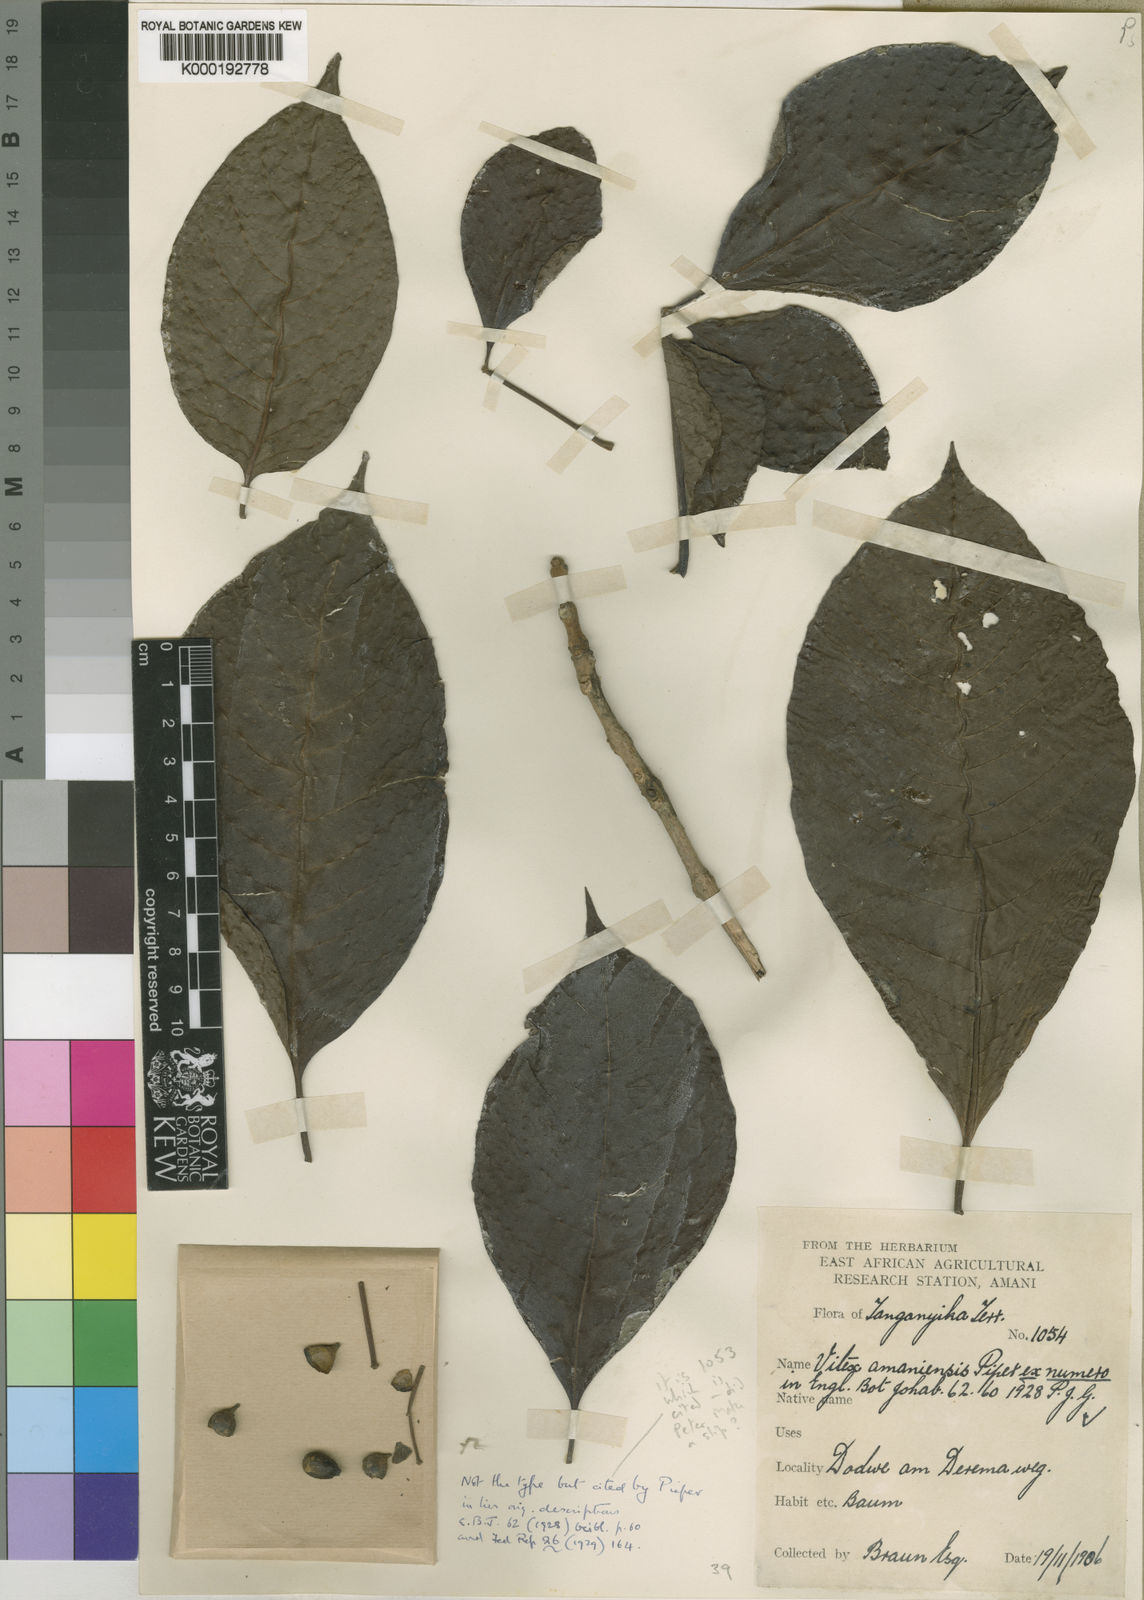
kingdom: Plantae
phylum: Tracheophyta
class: Magnoliopsida
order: Lamiales
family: Lamiaceae
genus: Vitex
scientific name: Vitex amaniensis
